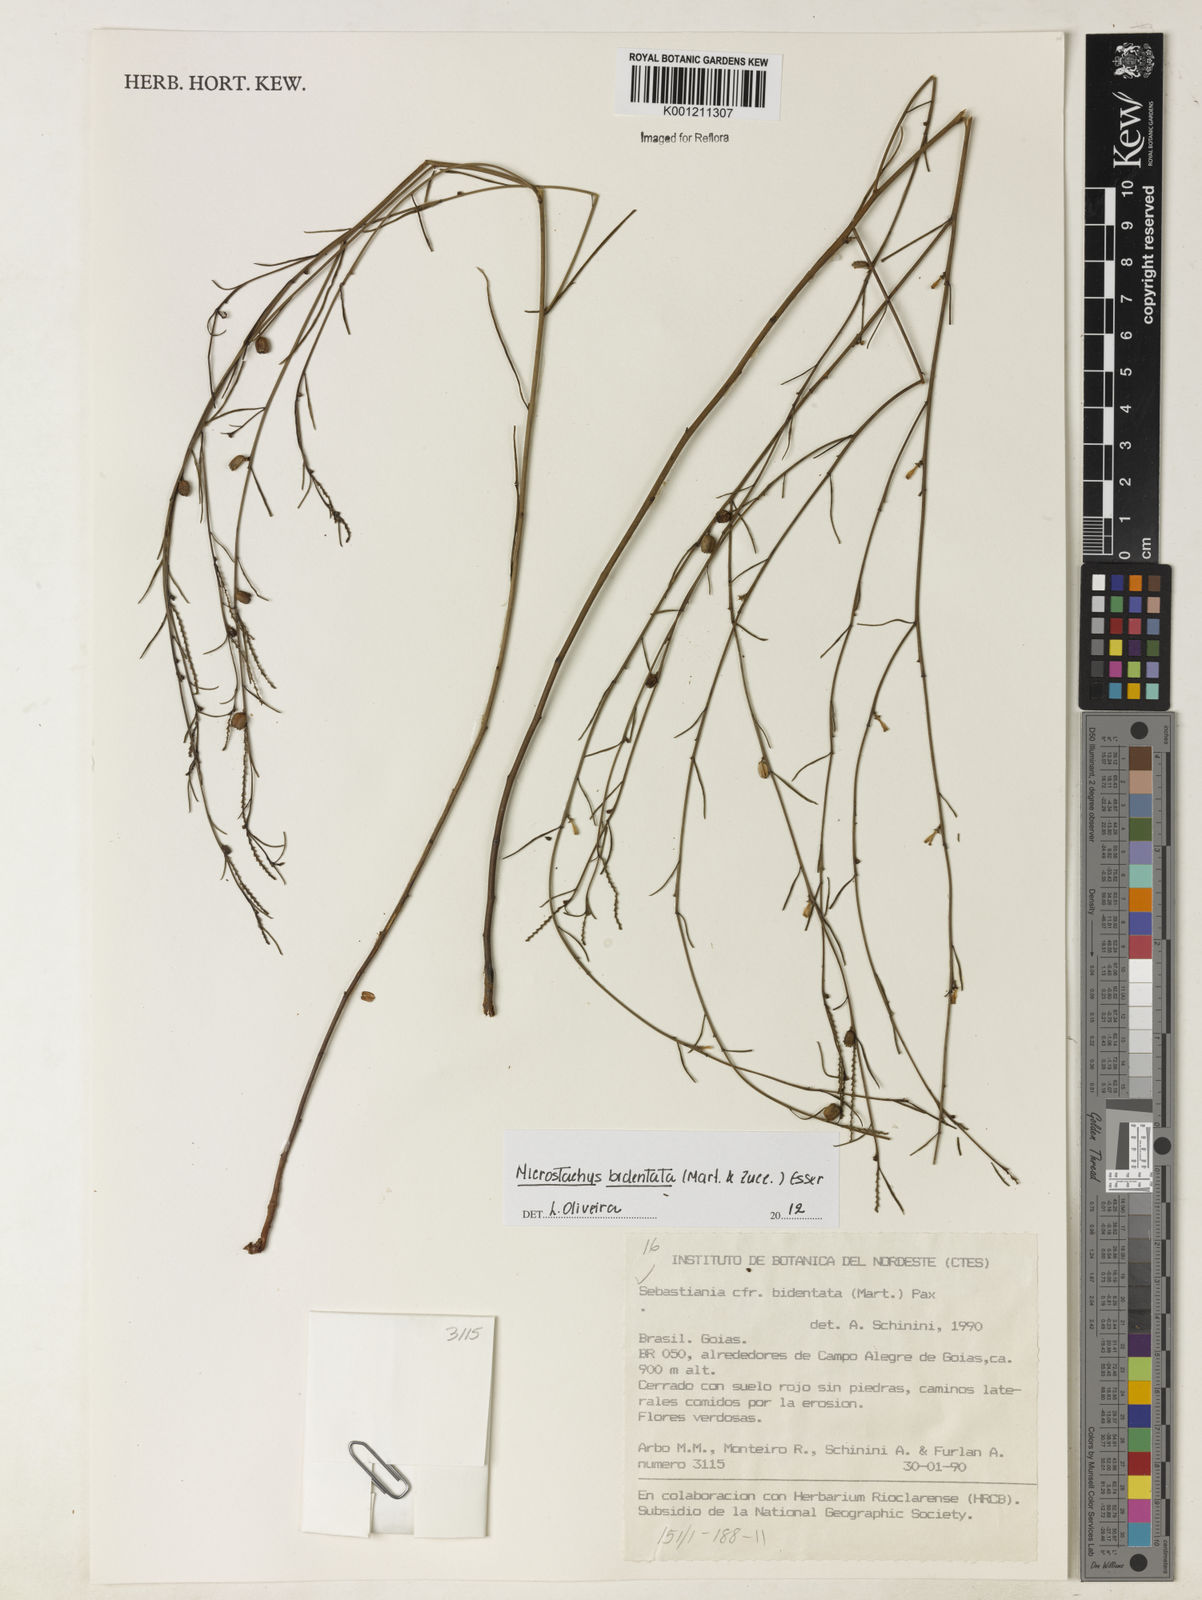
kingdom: Plantae
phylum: Tracheophyta
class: Magnoliopsida
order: Malpighiales
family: Euphorbiaceae
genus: Microstachys
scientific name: Microstachys bidentata
